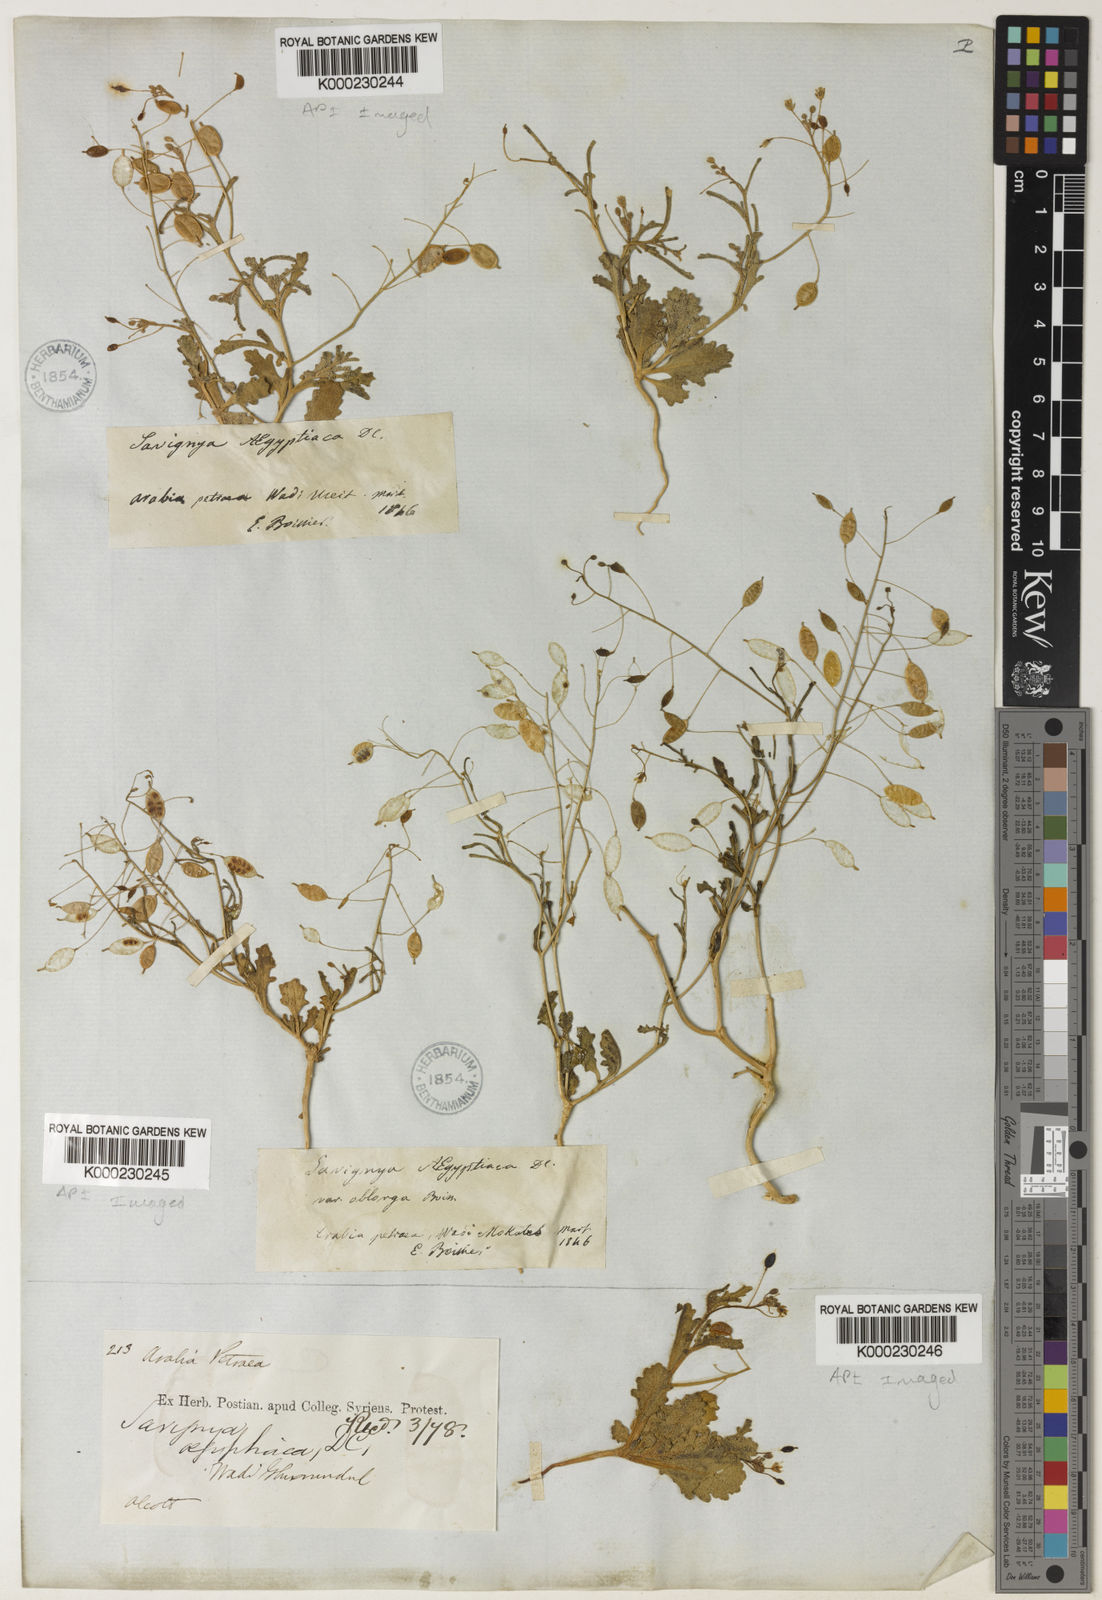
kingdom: Plantae
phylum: Tracheophyta
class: Magnoliopsida
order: Brassicales
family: Brassicaceae
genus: Savignya
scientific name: Savignya parviflora
